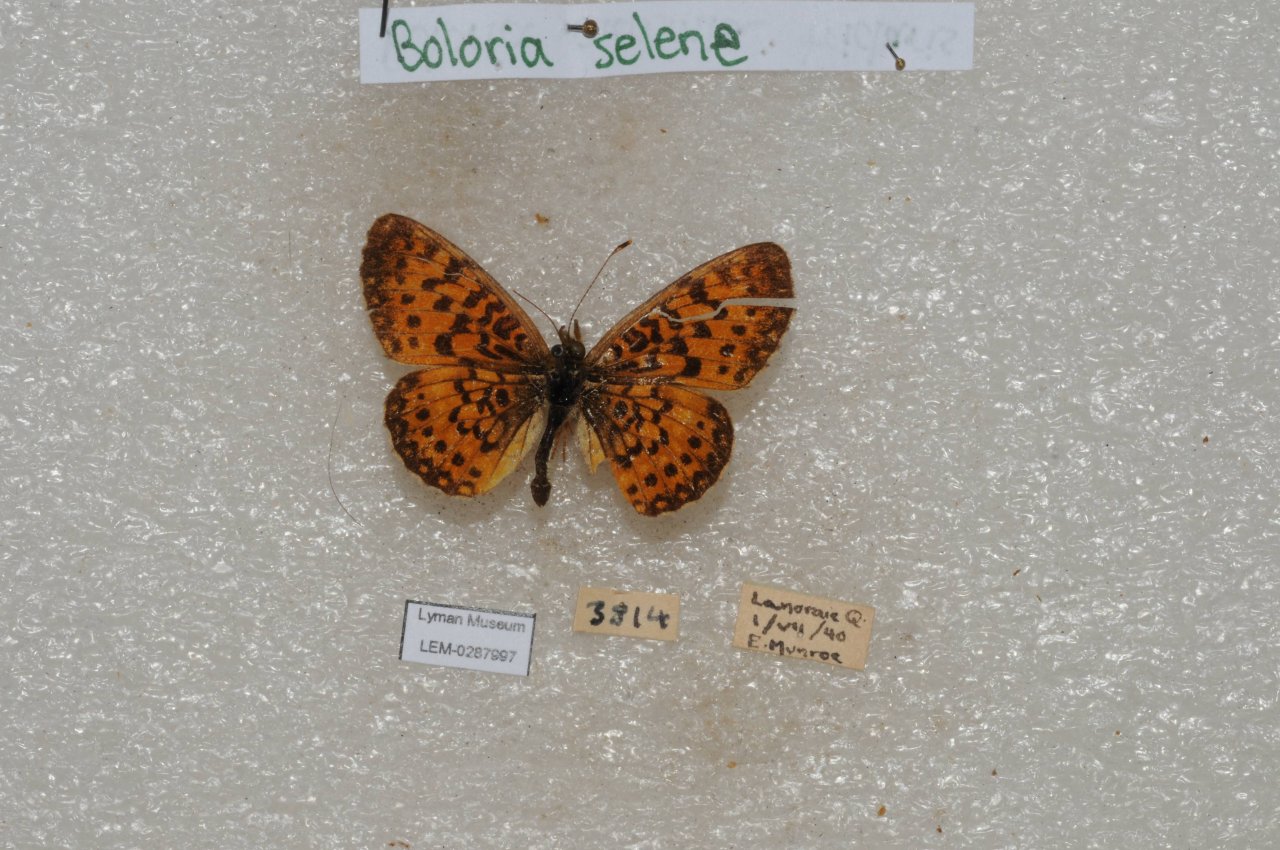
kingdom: Animalia
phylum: Arthropoda
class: Insecta
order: Lepidoptera
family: Nymphalidae
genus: Boloria
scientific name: Boloria selene
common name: Silver-bordered Fritillary
